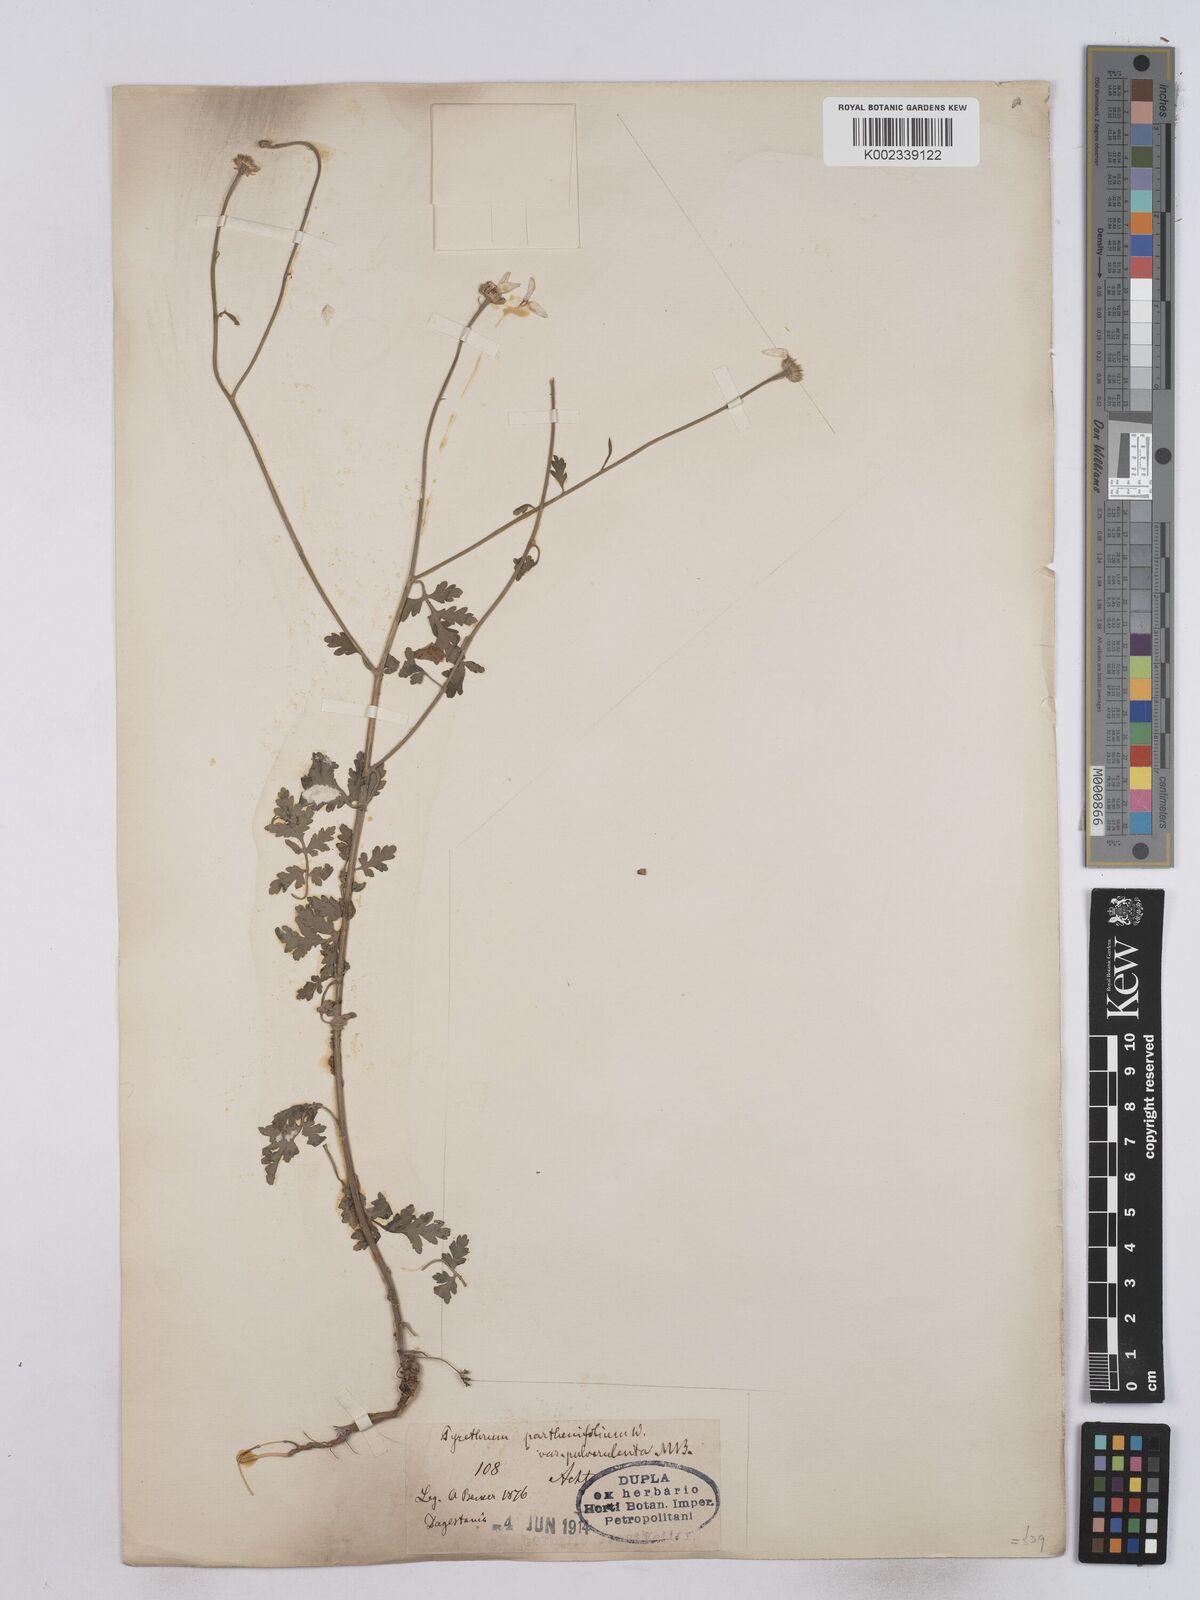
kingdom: Plantae
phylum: Tracheophyta
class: Magnoliopsida
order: Asterales
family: Asteraceae
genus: Tanacetum
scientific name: Tanacetum partheniifolium
